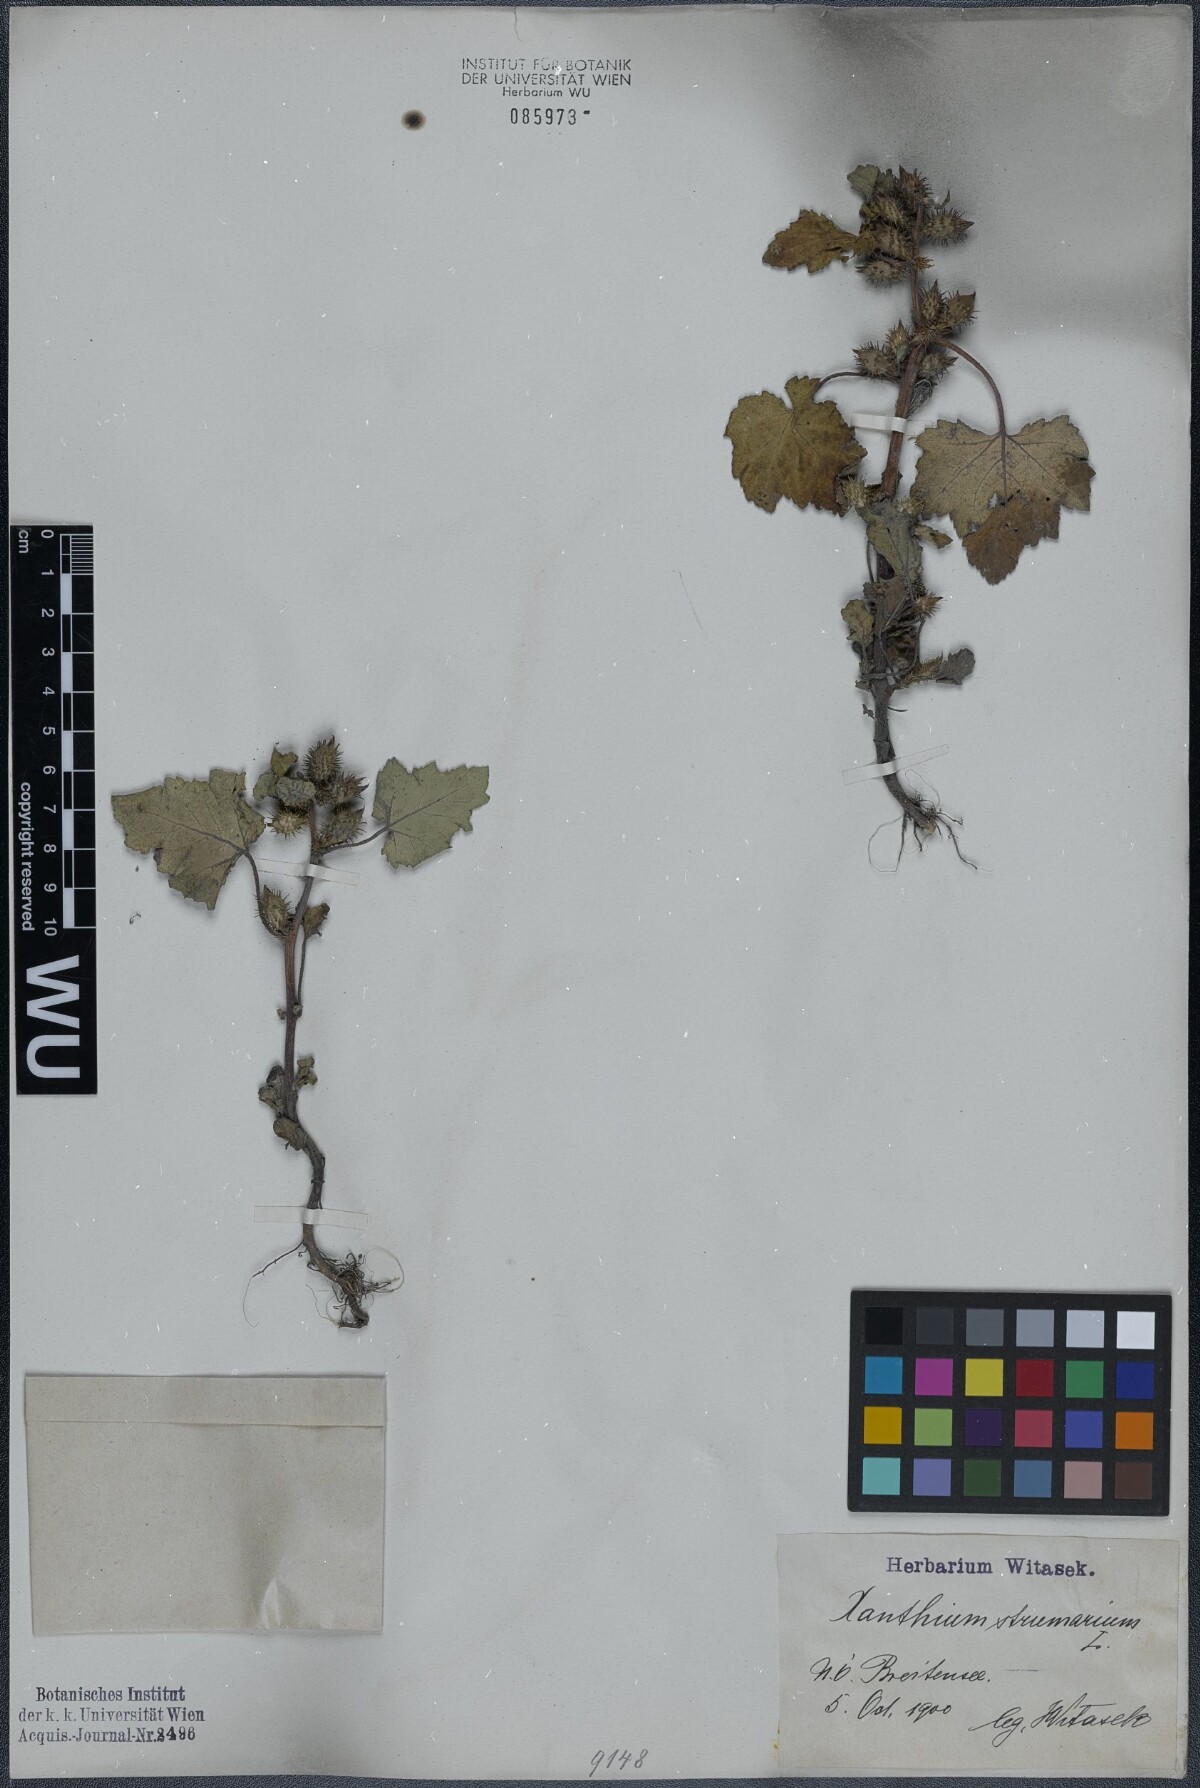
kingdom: Plantae
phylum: Tracheophyta
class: Magnoliopsida
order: Asterales
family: Asteraceae
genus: Xanthium
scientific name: Xanthium strumarium
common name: Rough cocklebur
